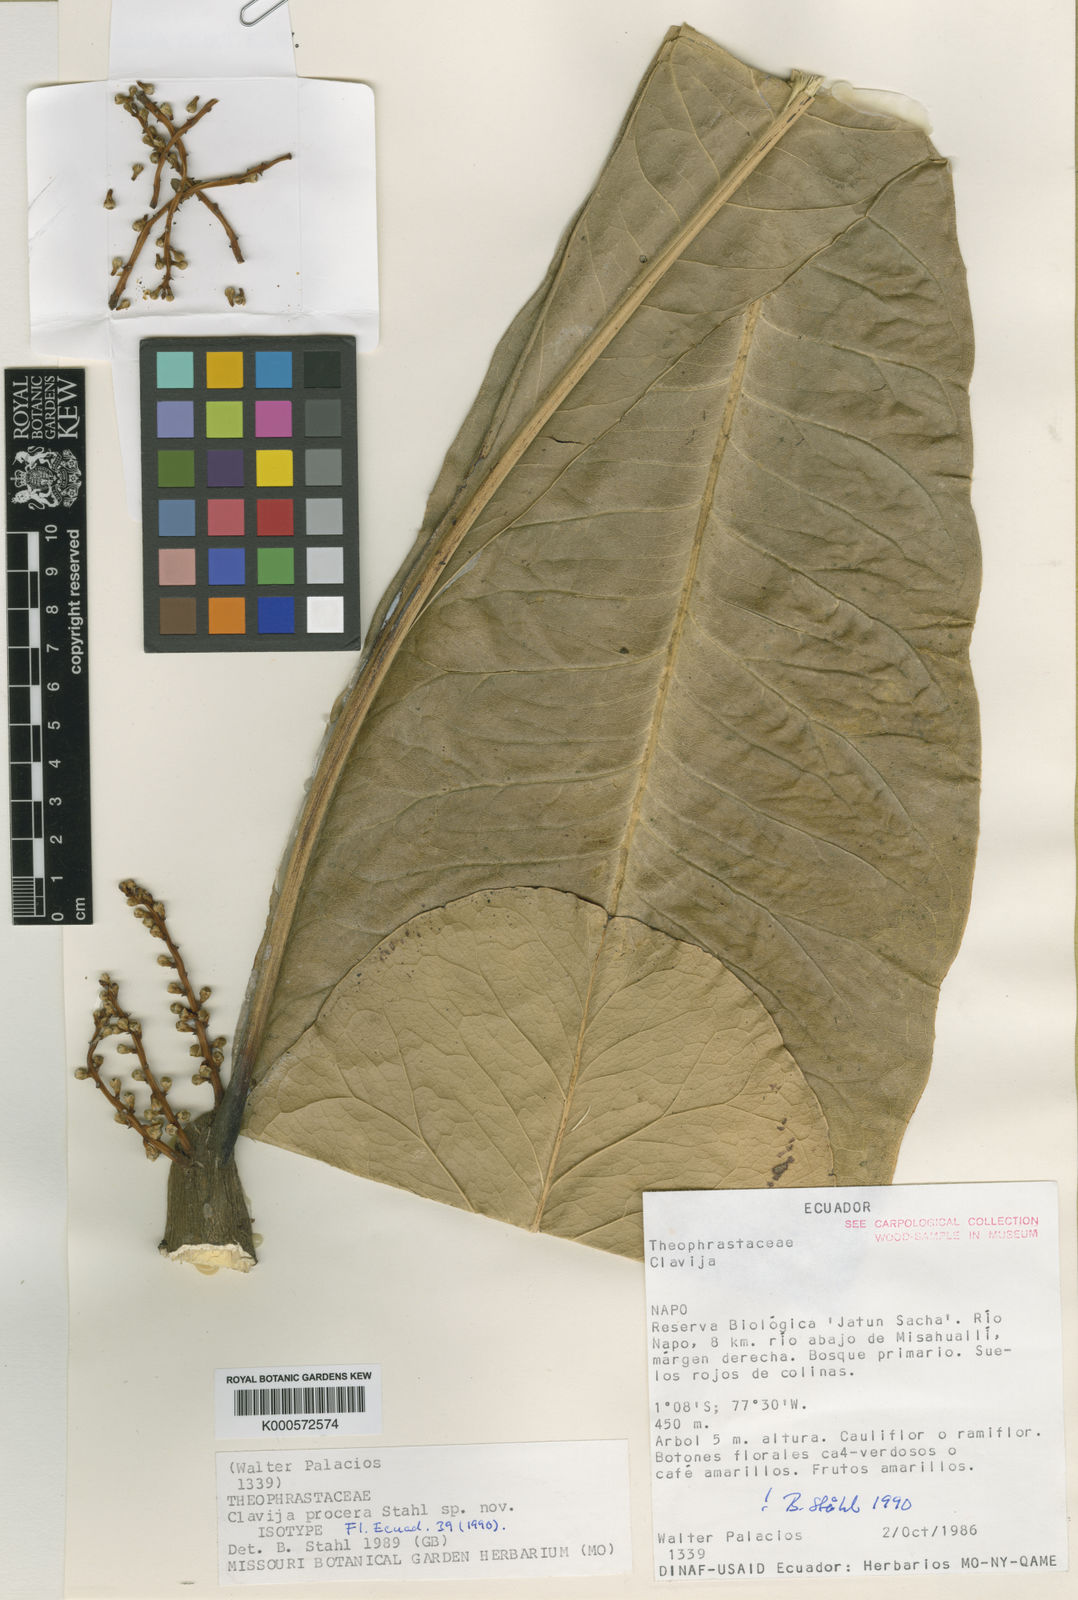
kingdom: Plantae
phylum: Tracheophyta
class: Magnoliopsida
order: Ericales
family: Primulaceae
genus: Clavija
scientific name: Clavija
